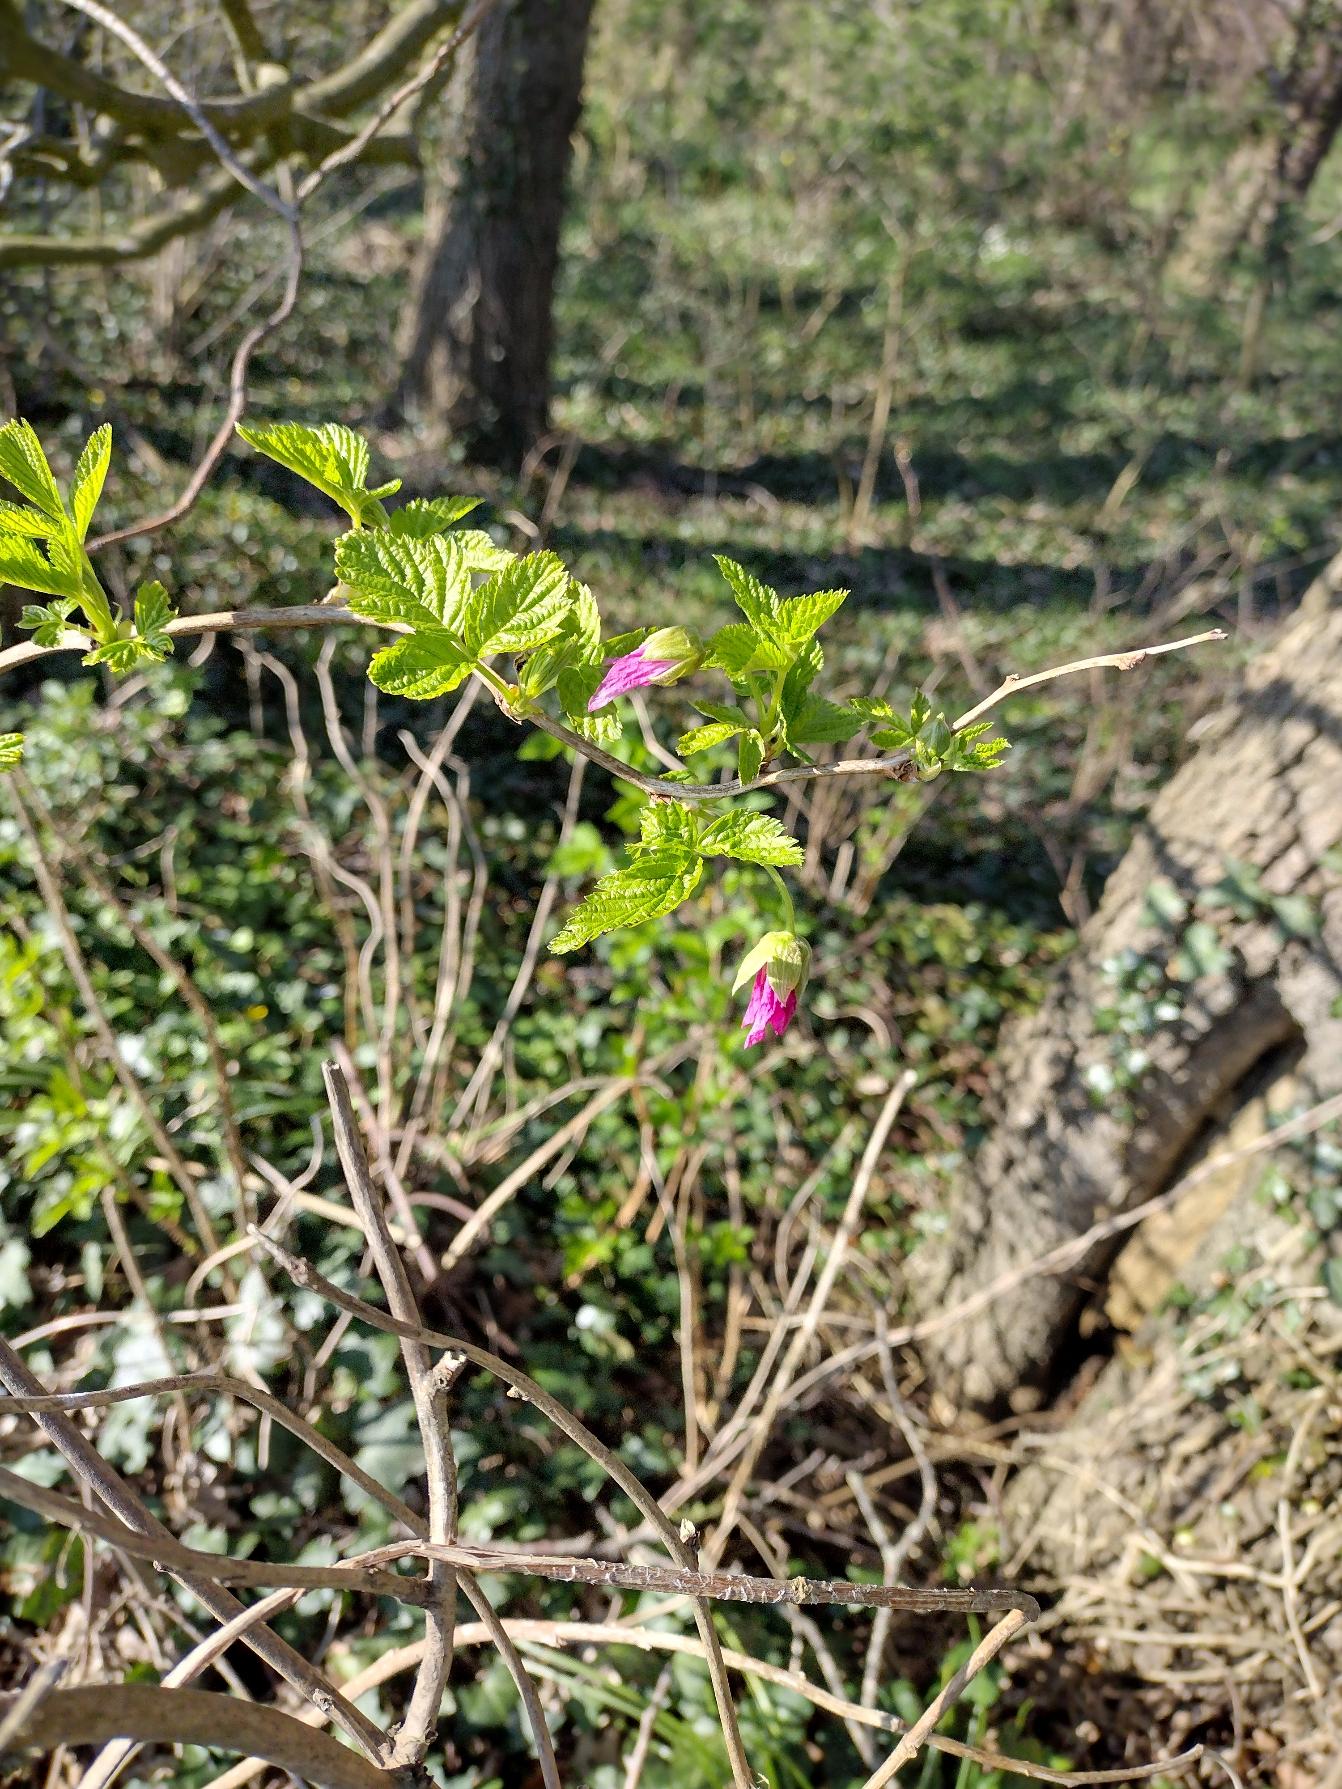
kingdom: Plantae
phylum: Tracheophyta
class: Magnoliopsida
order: Rosales
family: Rosaceae
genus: Rubus
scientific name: Rubus spectabilis
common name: Laksebær
